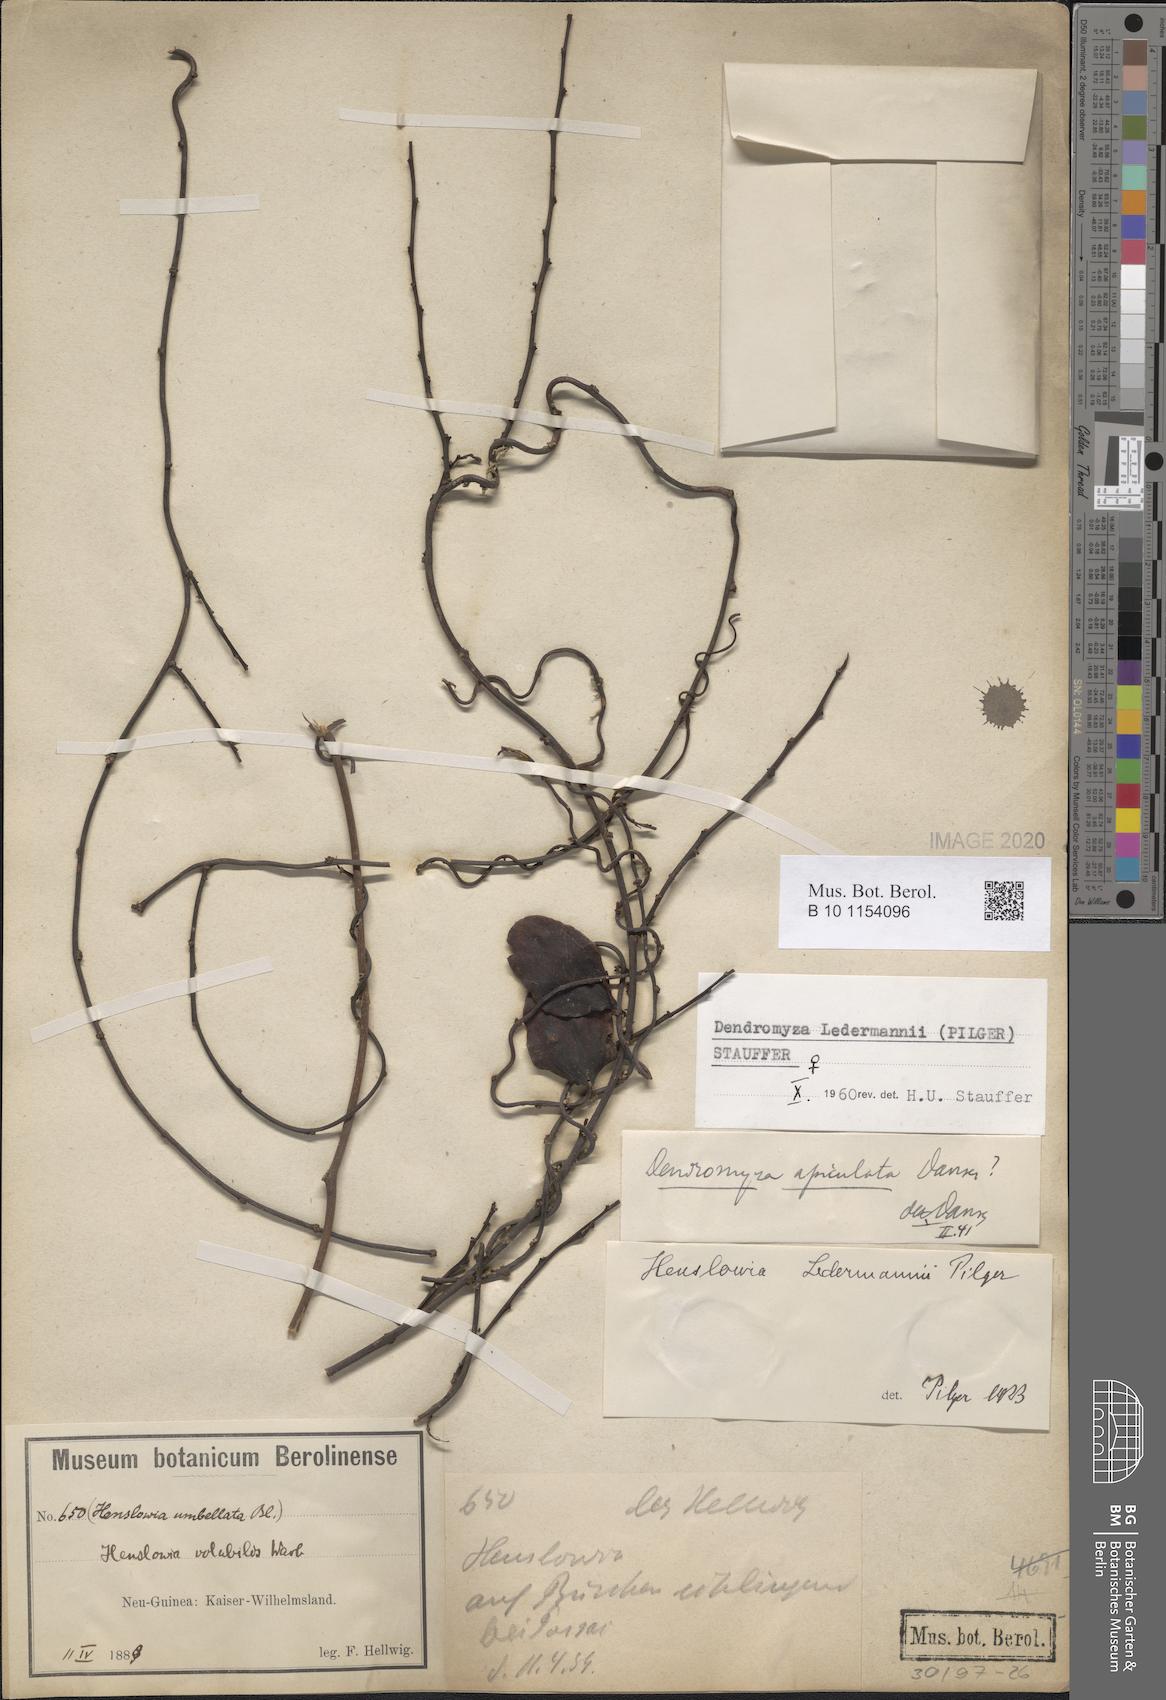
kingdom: Plantae
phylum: Tracheophyta
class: Magnoliopsida
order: Santalales
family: Amphorogynaceae
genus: Dendromyza
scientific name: Dendromyza ledermannii
